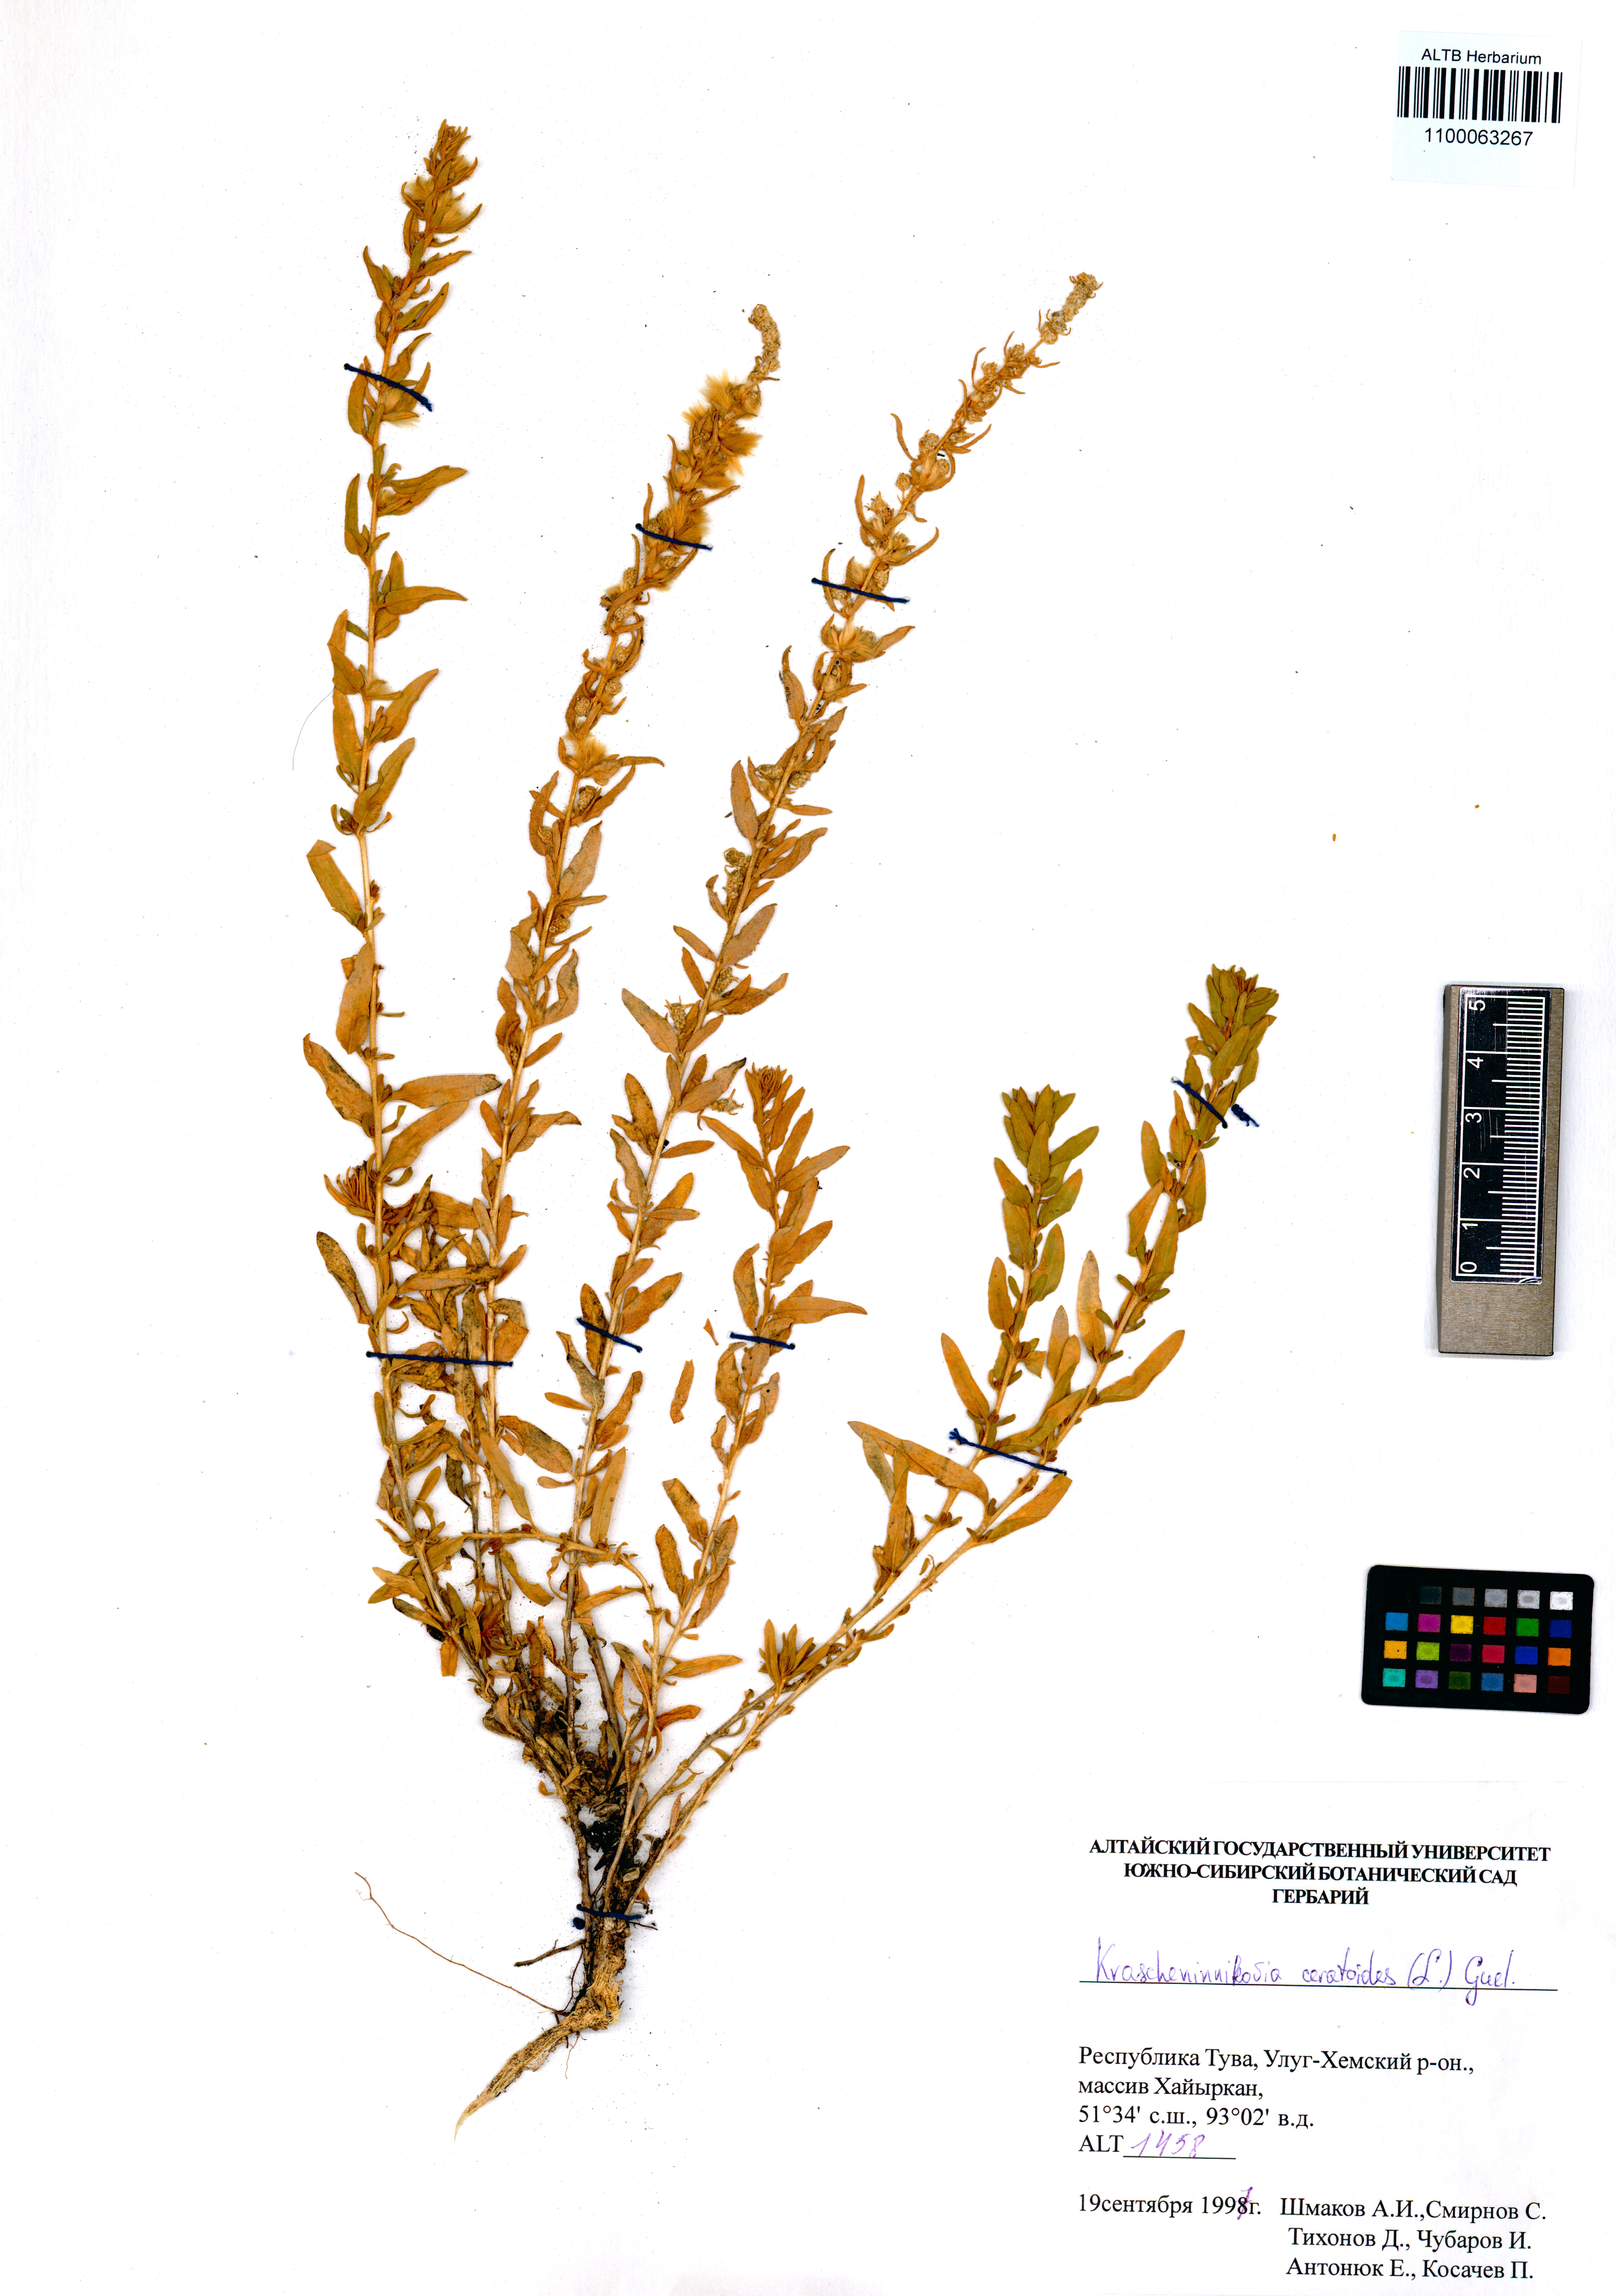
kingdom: Plantae
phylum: Tracheophyta
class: Magnoliopsida
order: Caryophyllales
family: Amaranthaceae
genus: Krascheninnikovia
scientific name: Krascheninnikovia ceratoides
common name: Pamirian winterfat
